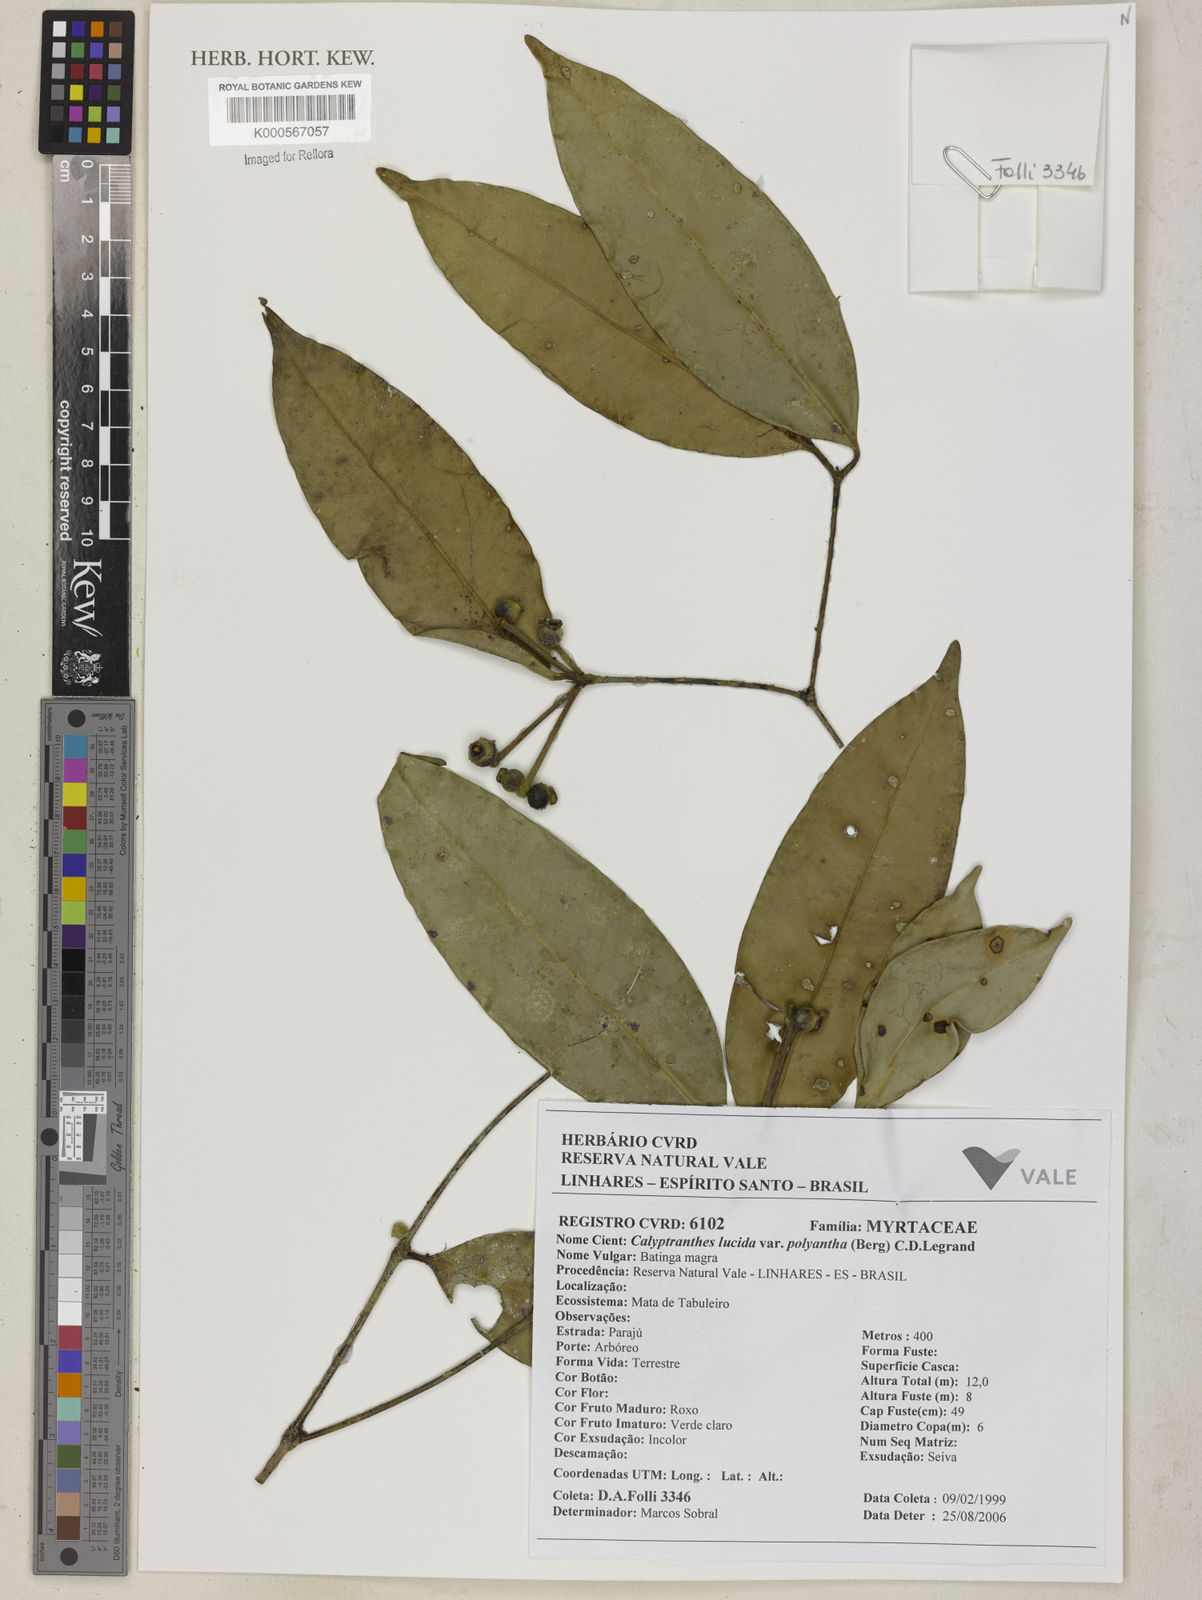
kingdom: Plantae
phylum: Tracheophyta
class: Magnoliopsida
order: Myrtales
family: Myrtaceae
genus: Myrcia
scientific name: Myrcia neolucida
